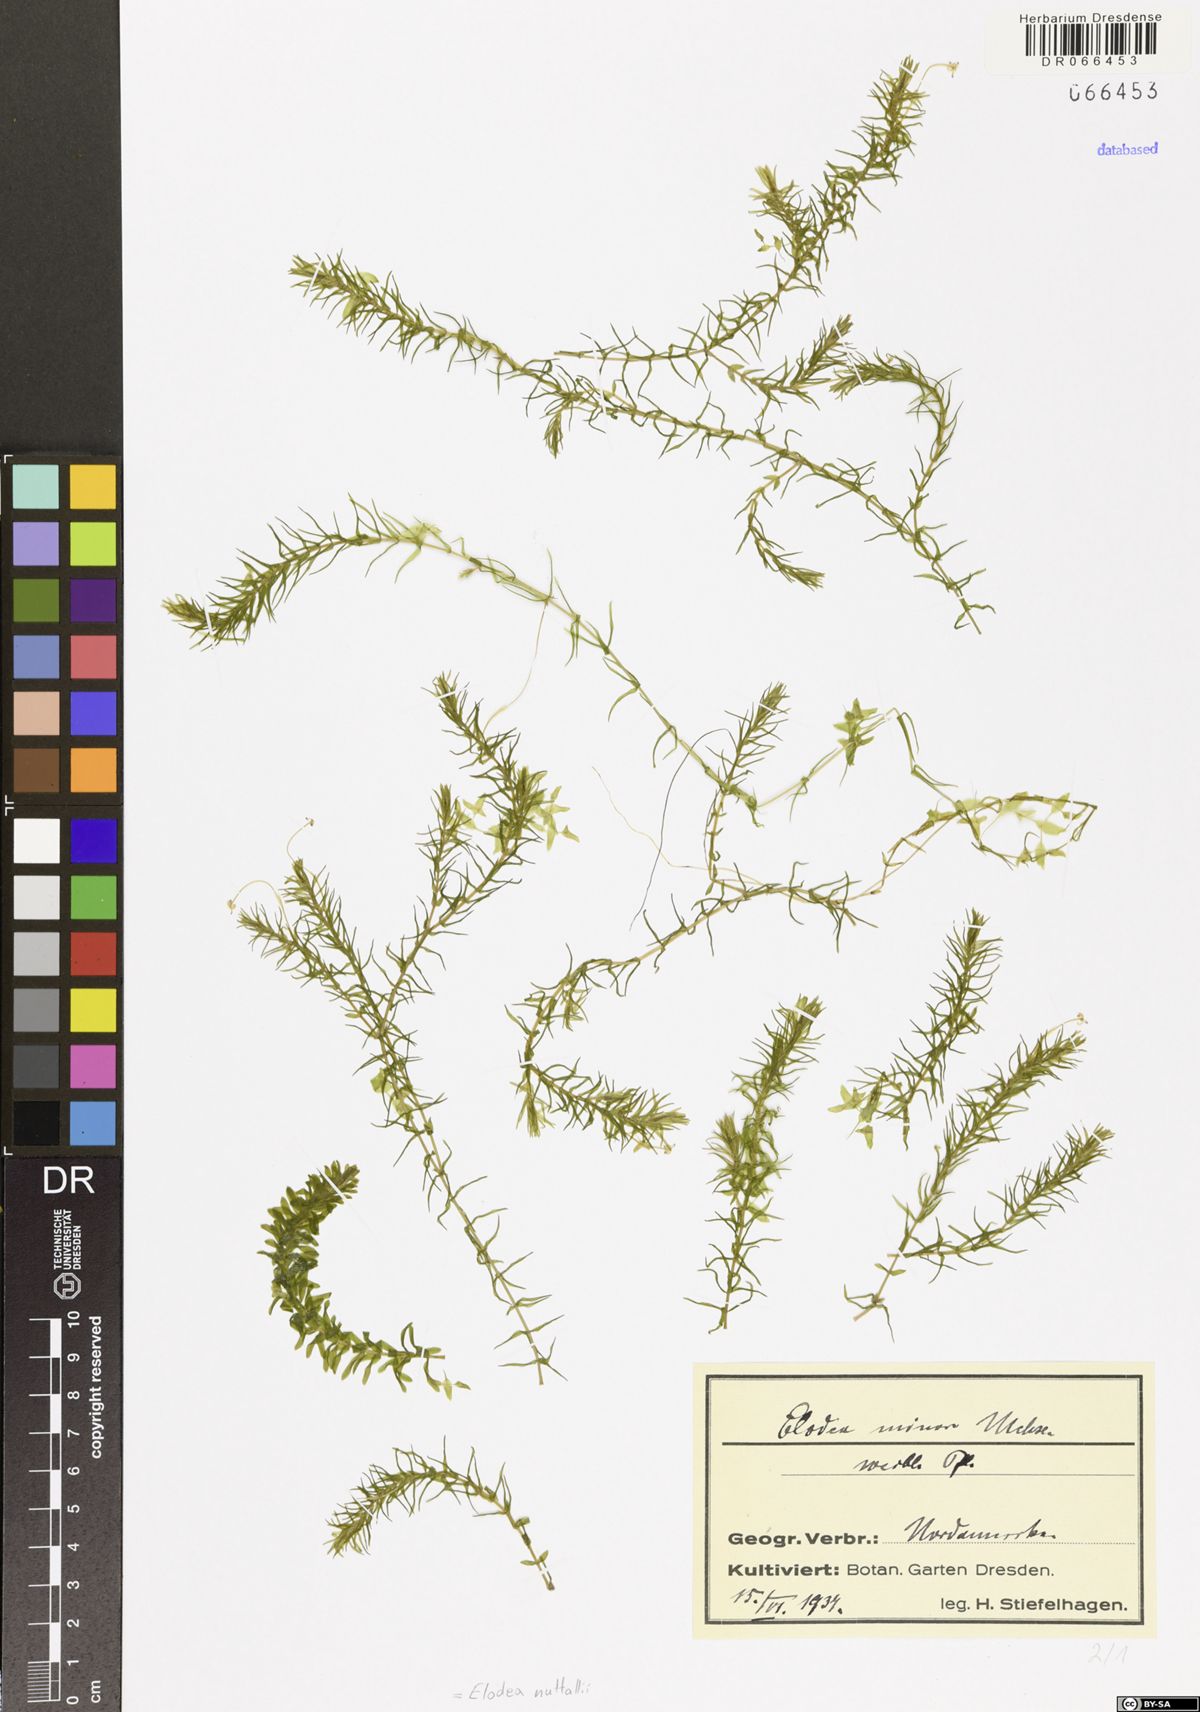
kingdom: Plantae
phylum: Tracheophyta
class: Liliopsida
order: Alismatales
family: Hydrocharitaceae
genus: Elodea
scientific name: Elodea nuttallii
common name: Nuttall's waterweed
